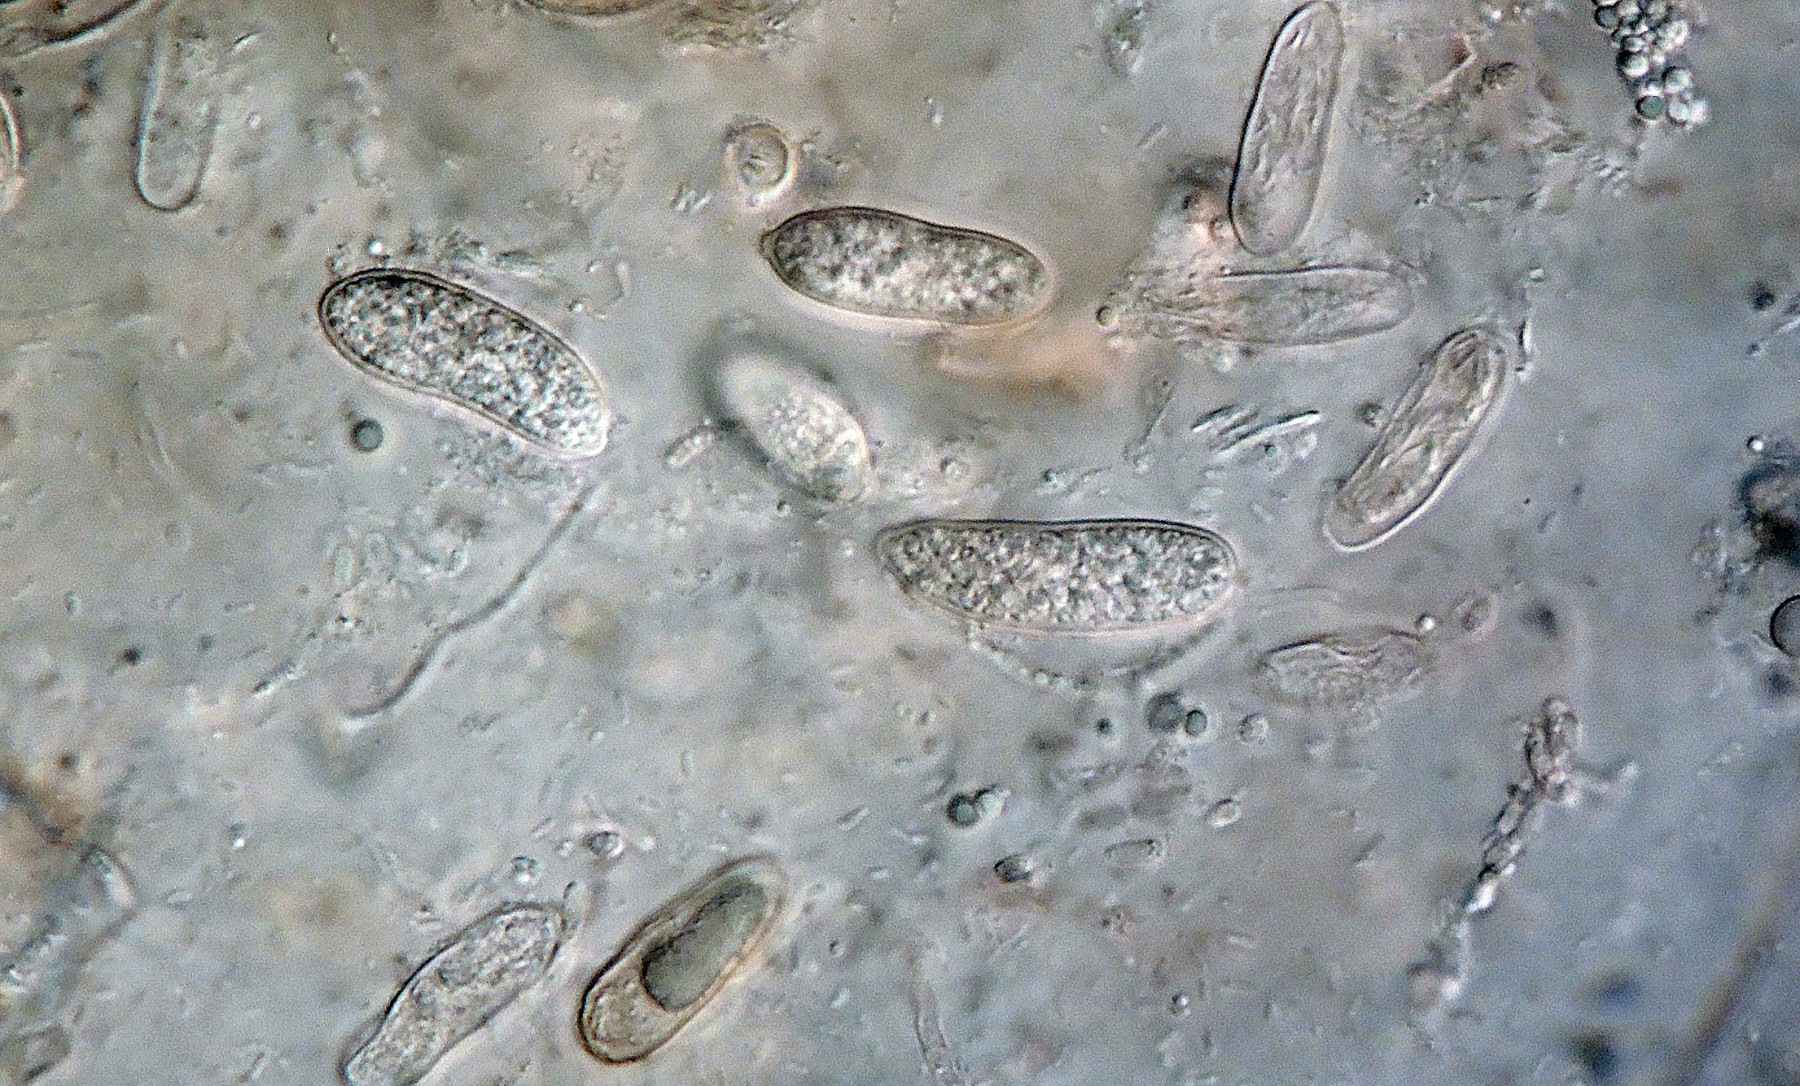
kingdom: Fungi
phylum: Ascomycota
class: Leotiomycetes
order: Helotiales
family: Dermateaceae
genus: Pezicula
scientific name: Pezicula corticola
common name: pære-klyngeskive
